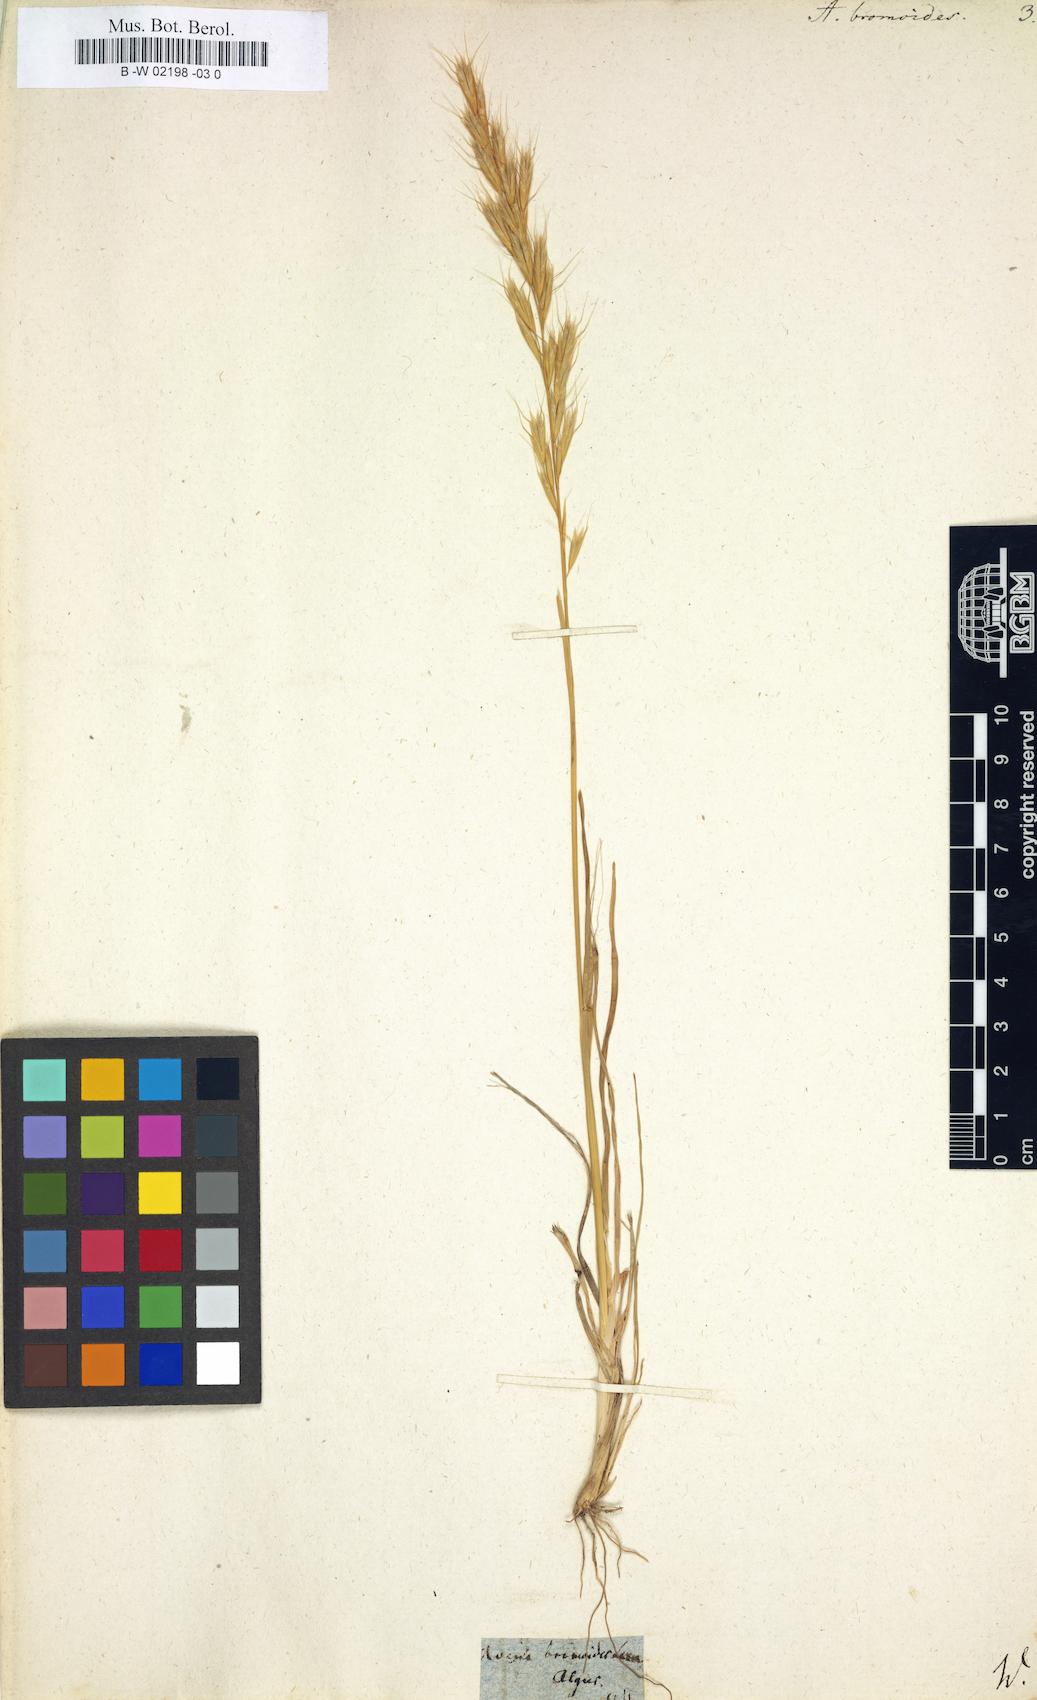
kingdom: Plantae
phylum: Tracheophyta
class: Liliopsida
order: Poales
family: Poaceae
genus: Helictochloa
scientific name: Helictochloa
